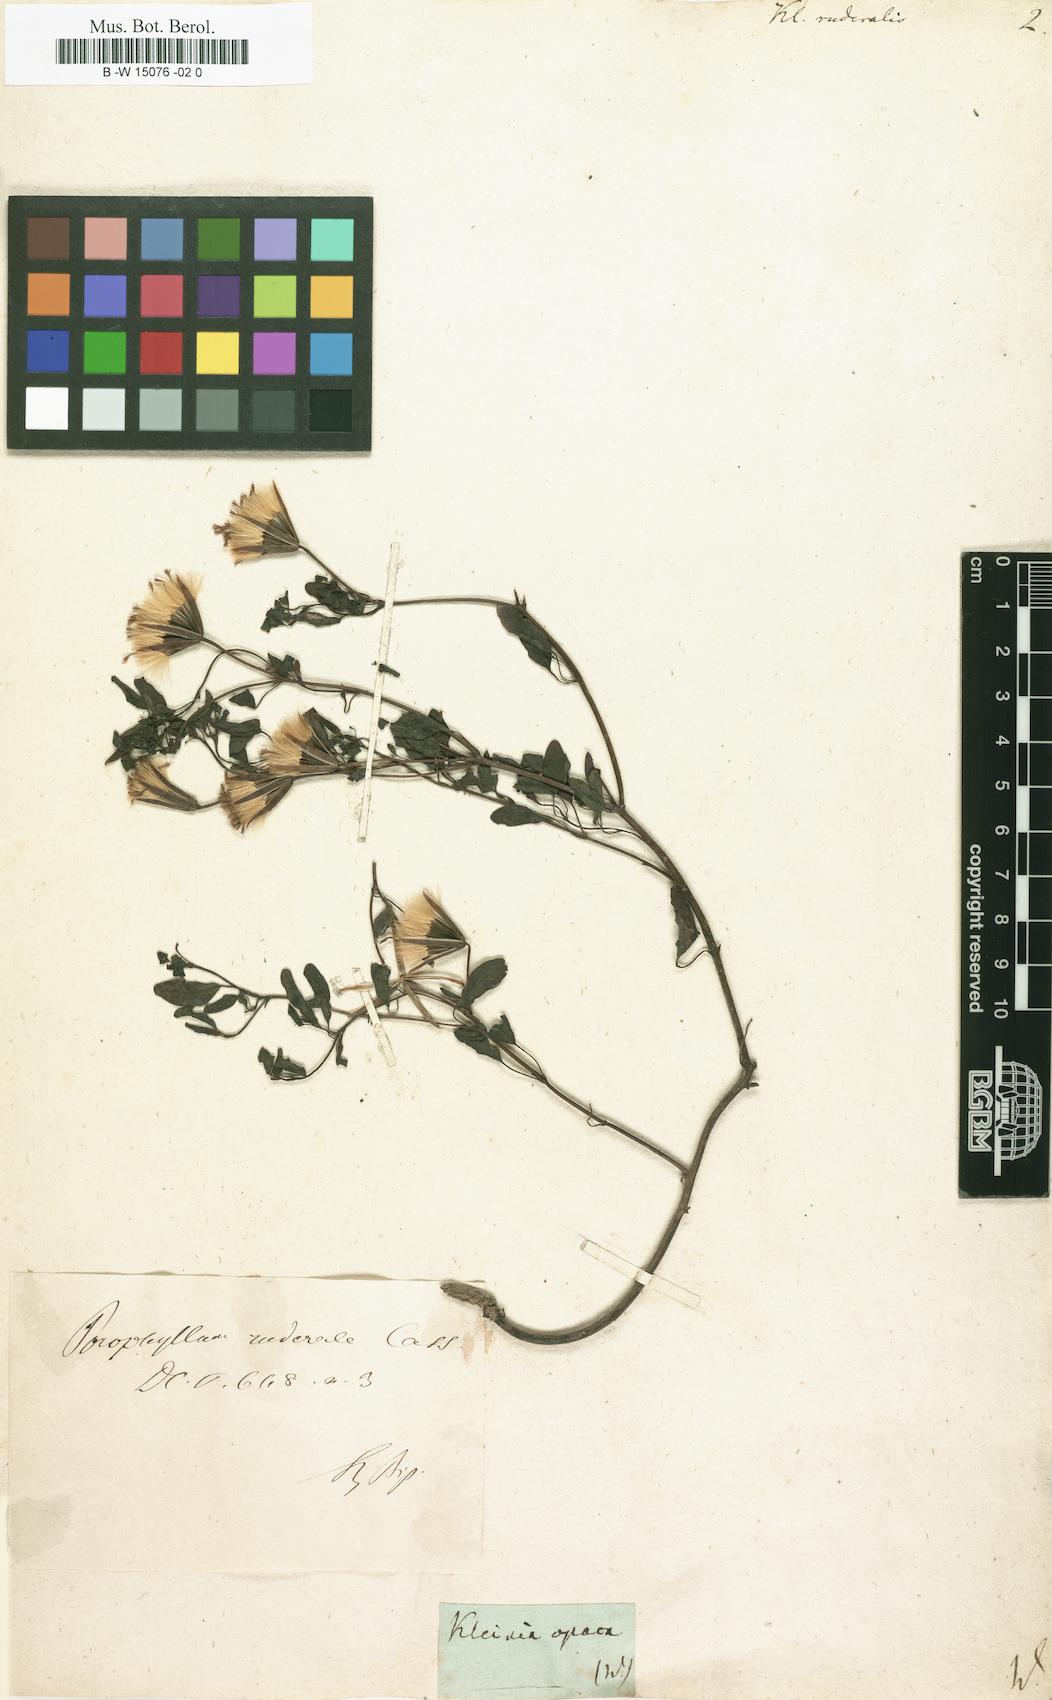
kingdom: Plantae
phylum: Tracheophyta
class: Magnoliopsida
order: Asterales
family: Asteraceae
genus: Porophyllum
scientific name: Porophyllum ruderale
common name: Yerba porosa
